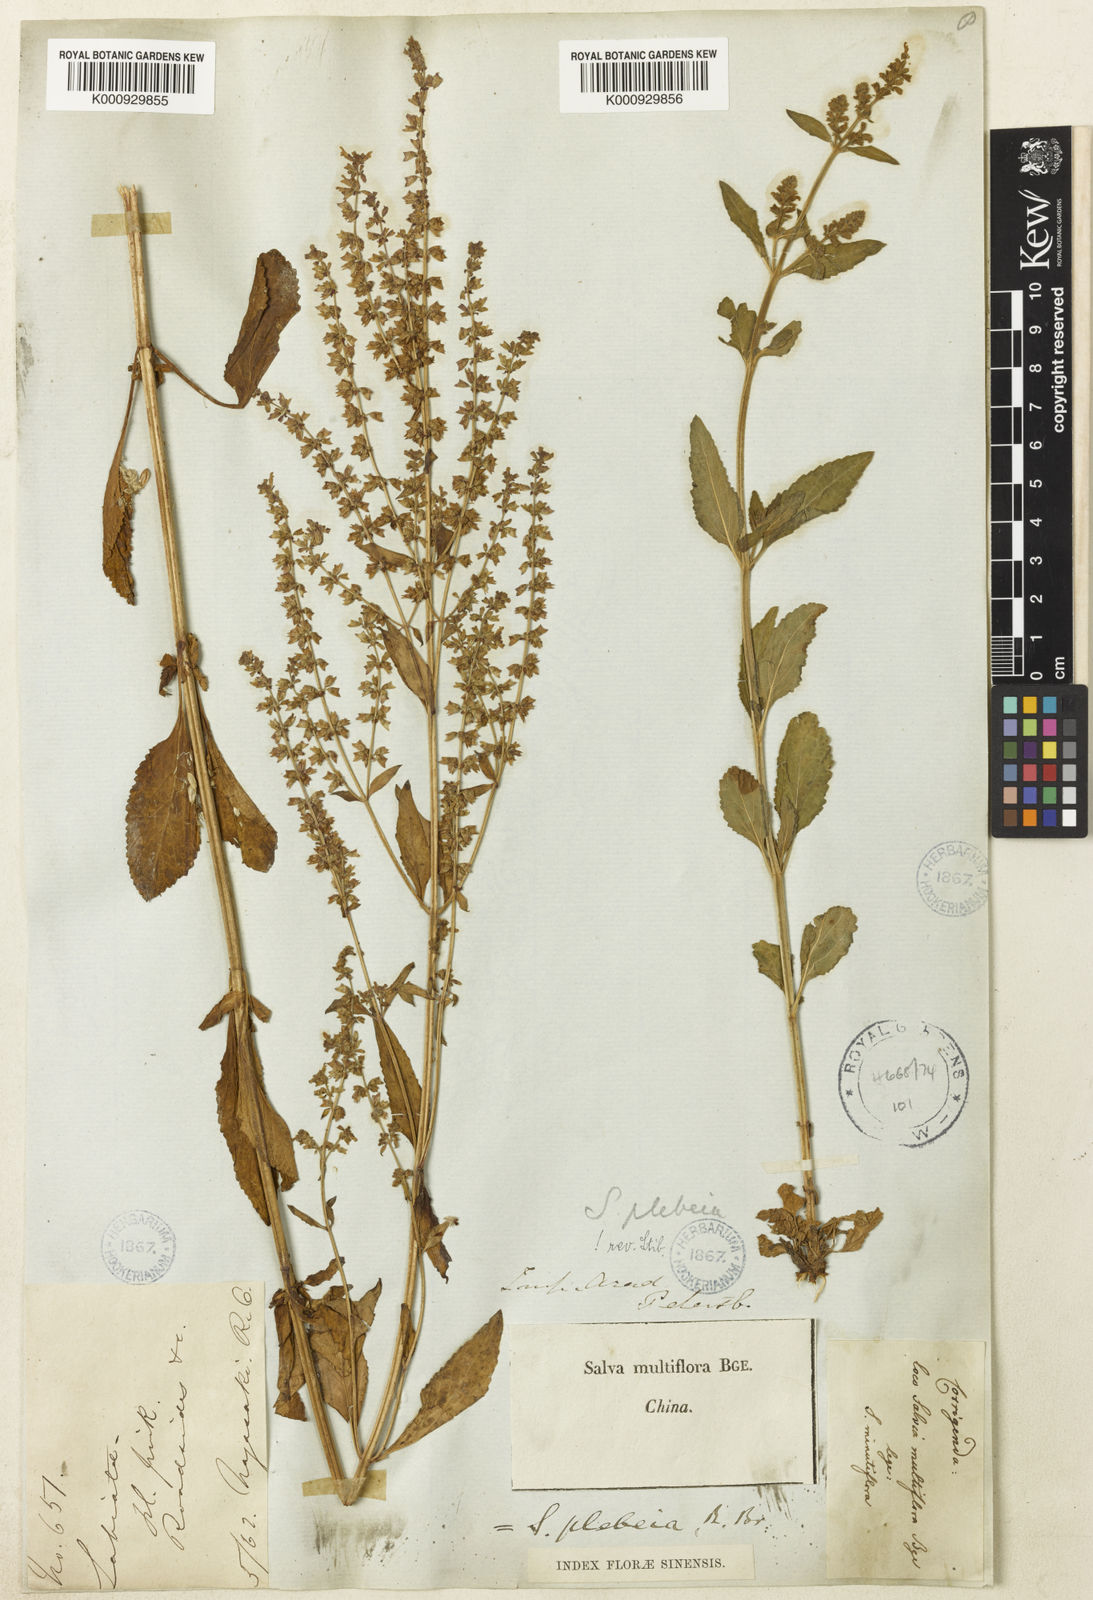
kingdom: Plantae
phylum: Tracheophyta
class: Magnoliopsida
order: Lamiales
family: Lamiaceae
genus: Salvia
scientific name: Salvia plebeia
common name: Australian sage
